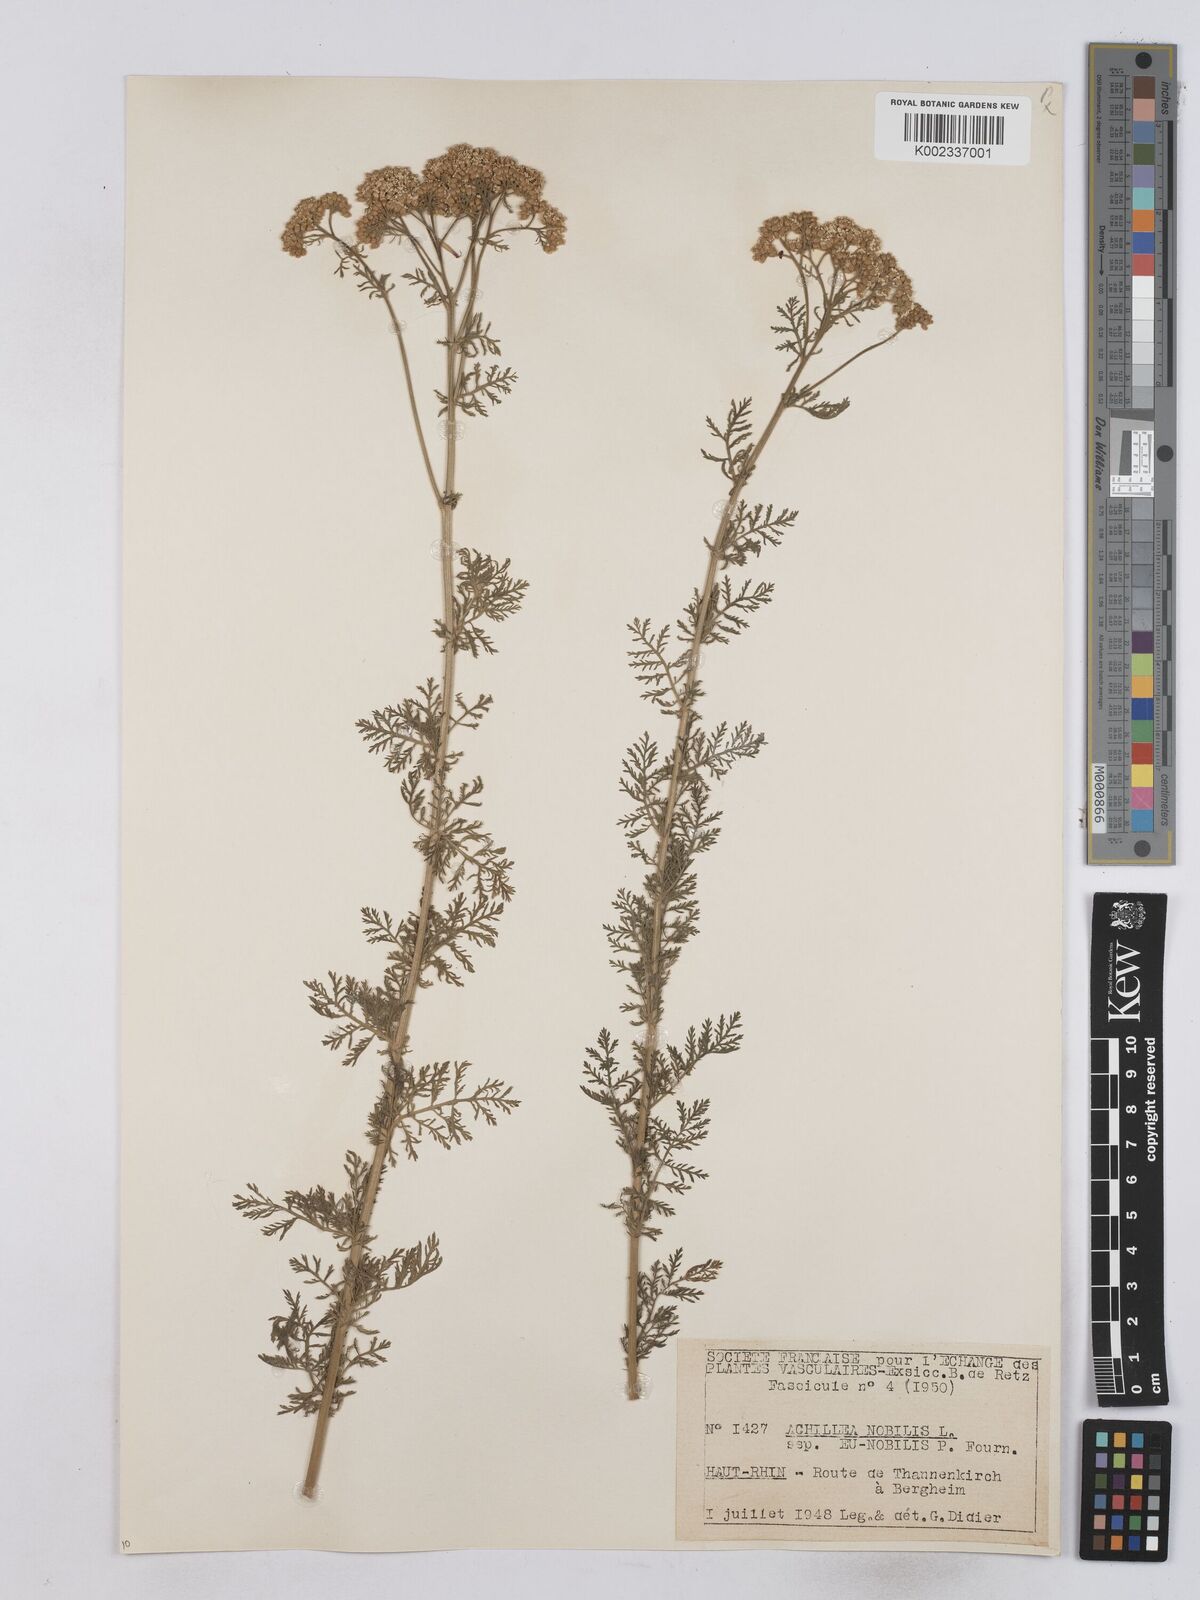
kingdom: Plantae
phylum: Tracheophyta
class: Magnoliopsida
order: Asterales
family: Asteraceae
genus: Achillea
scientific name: Achillea nobilis
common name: Noble yarrow
